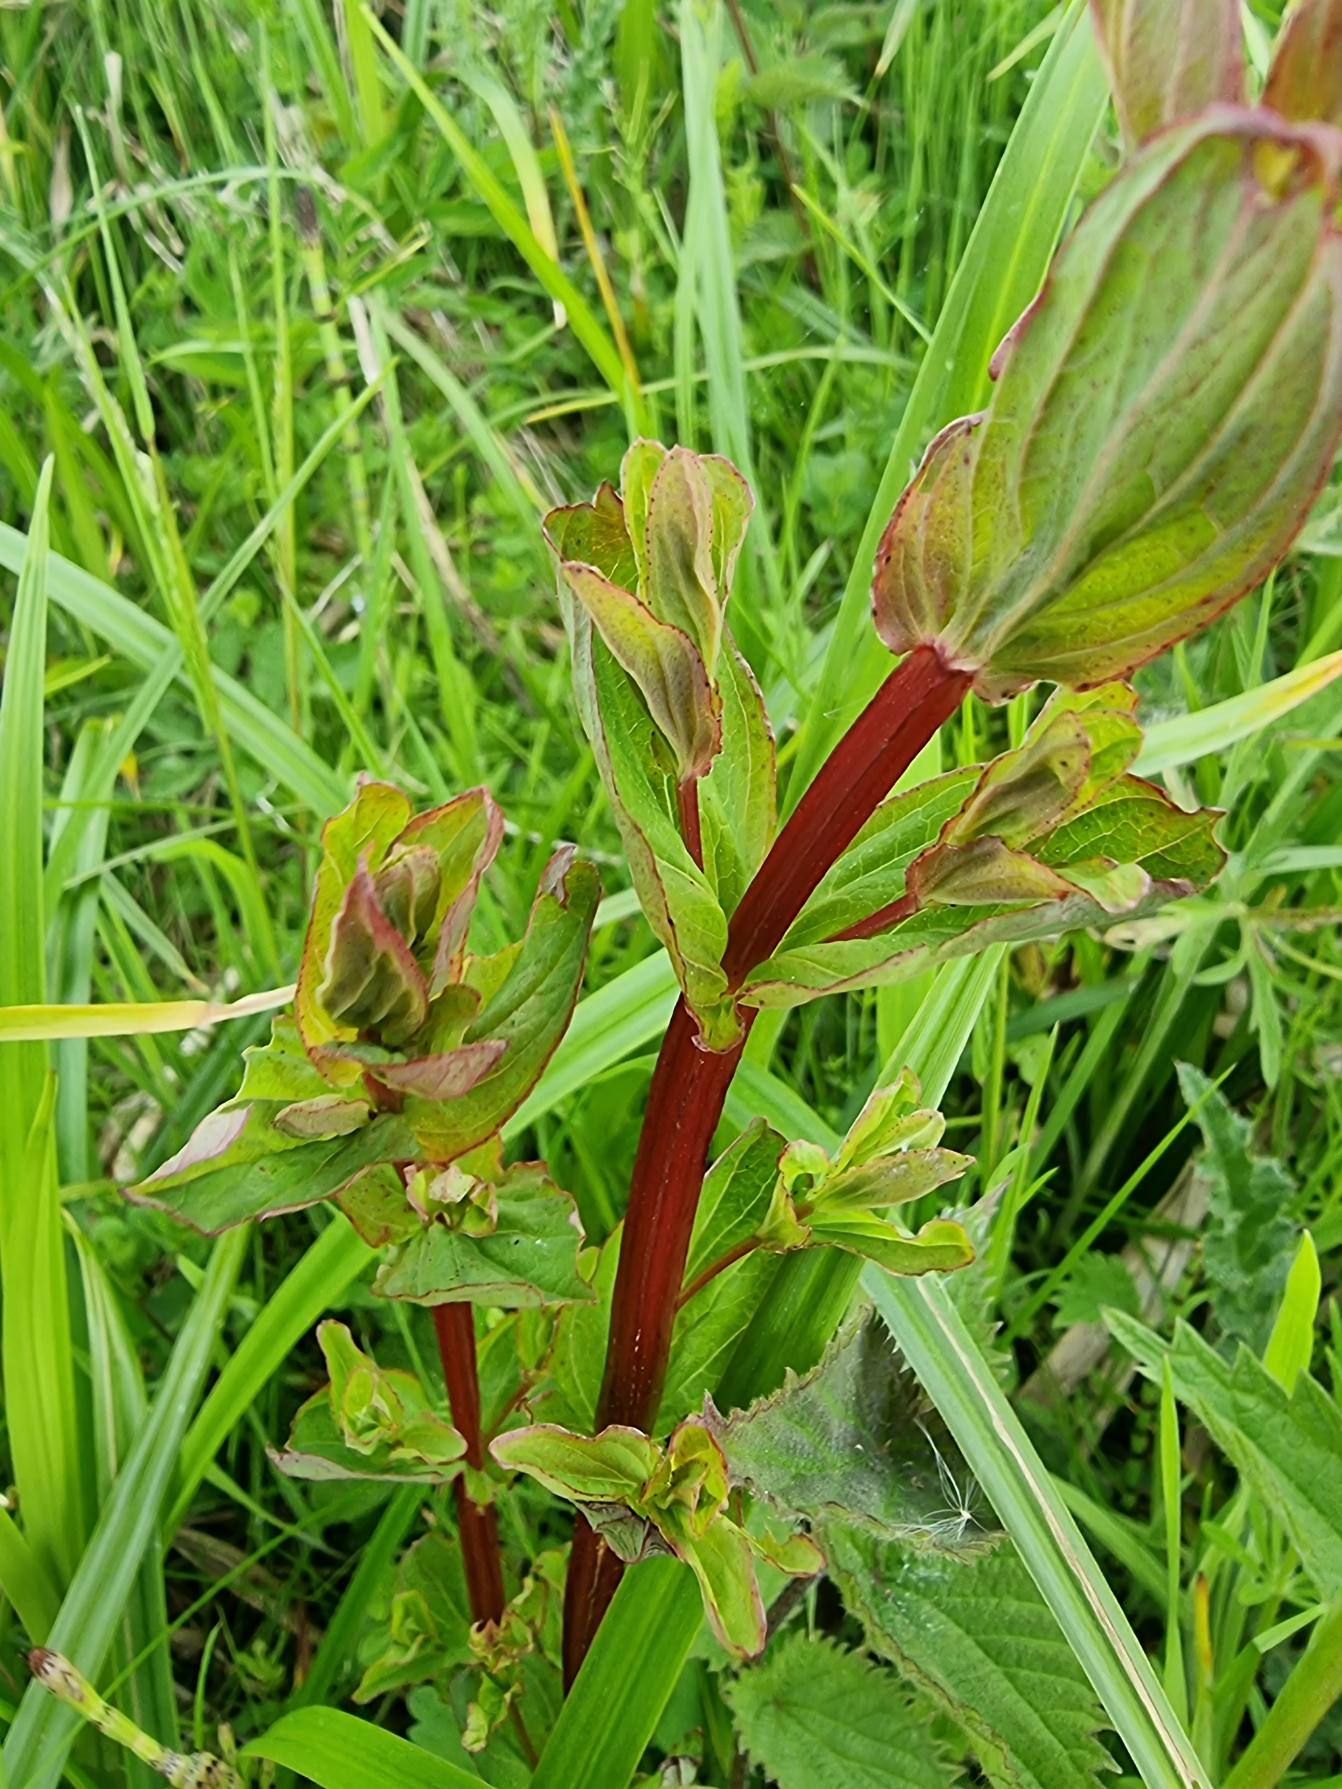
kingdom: Plantae
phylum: Tracheophyta
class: Magnoliopsida
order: Malpighiales
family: Hypericaceae
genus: Hypericum
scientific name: Hypericum tetrapterum
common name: Vinget perikon
